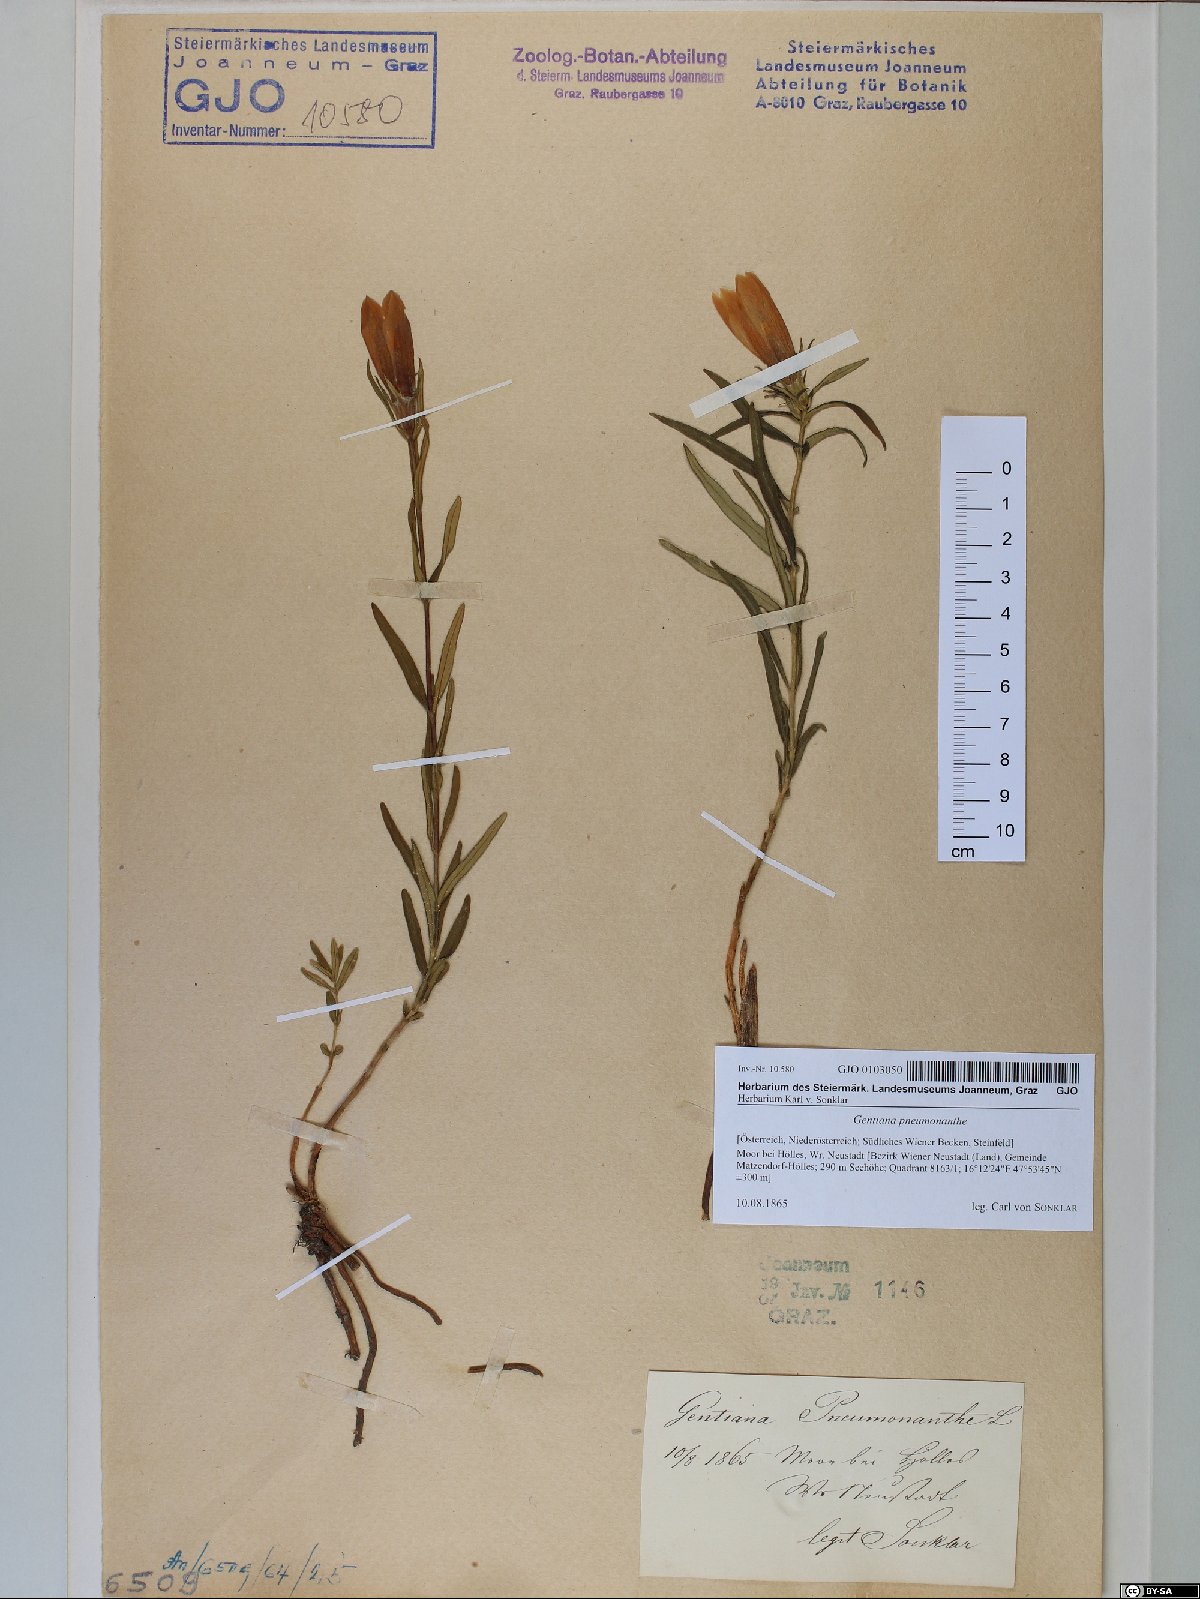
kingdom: Plantae
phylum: Tracheophyta
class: Magnoliopsida
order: Gentianales
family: Gentianaceae
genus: Gentiana
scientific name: Gentiana pneumonanthe
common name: Marsh gentian
